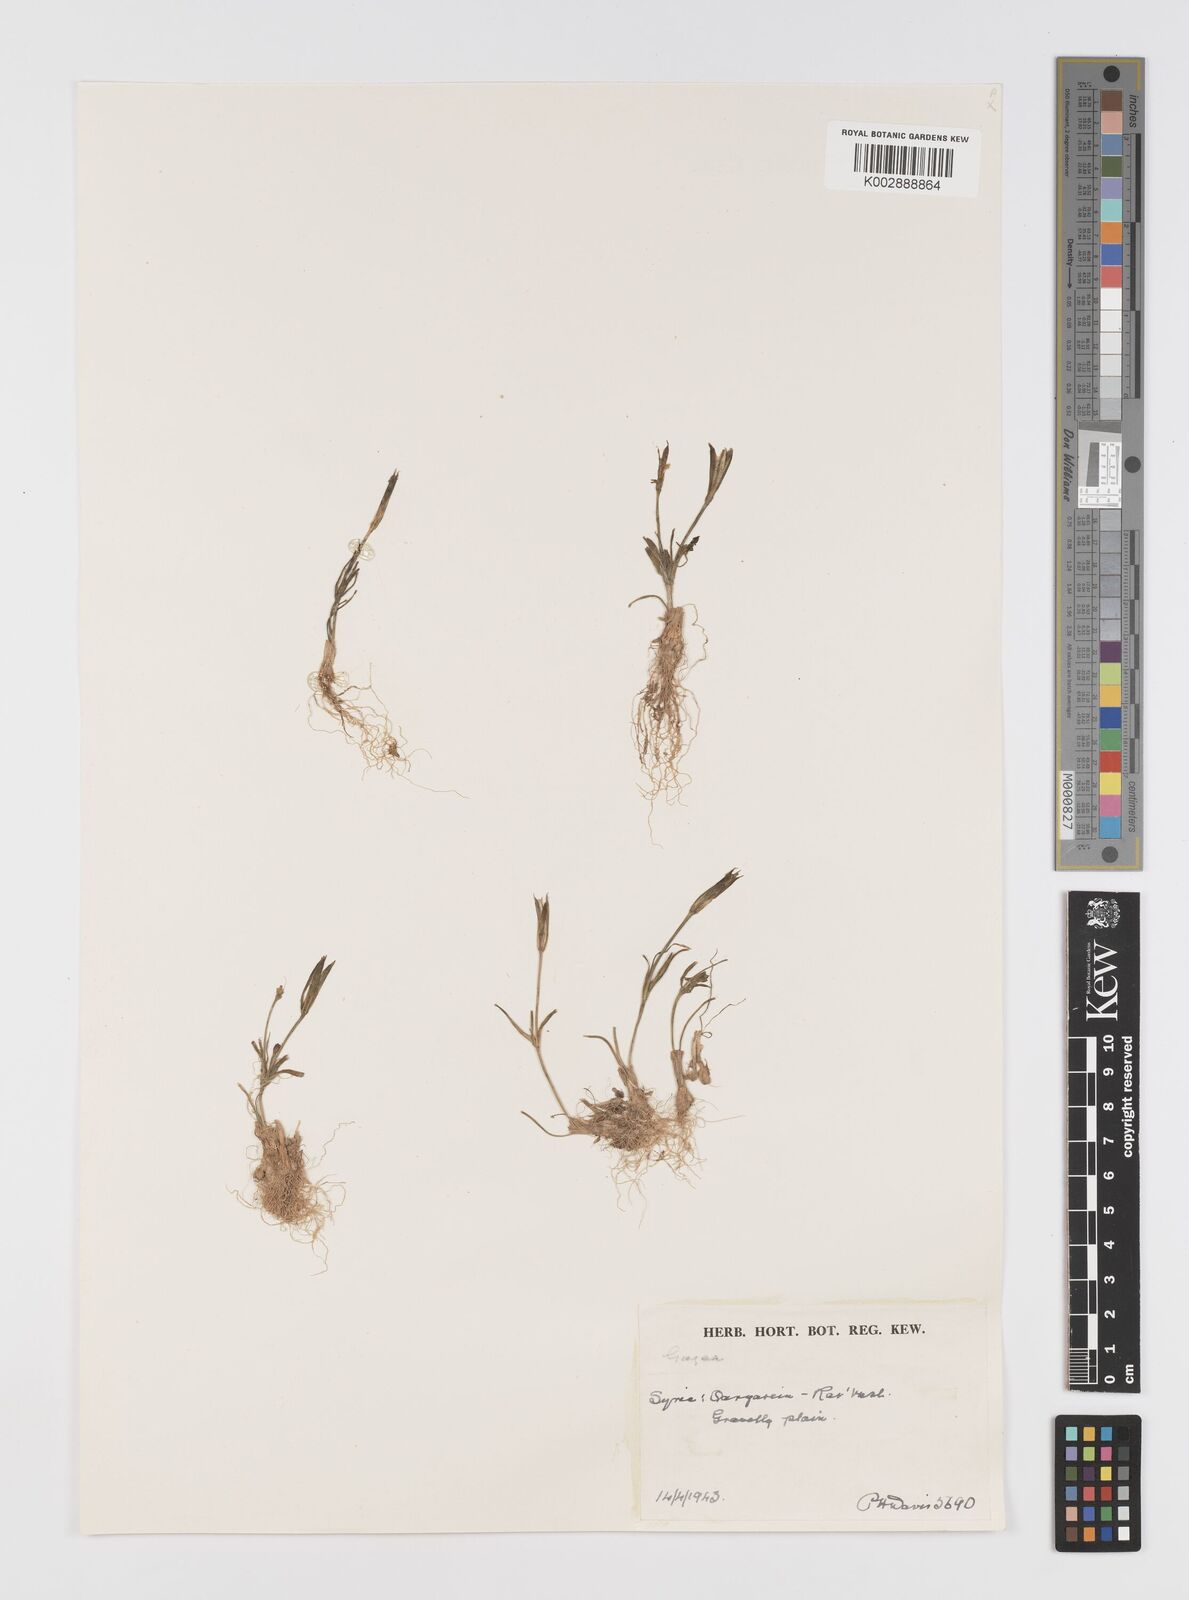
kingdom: Plantae
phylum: Tracheophyta
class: Liliopsida
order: Liliales
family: Liliaceae
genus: Gagea
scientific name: Gagea
